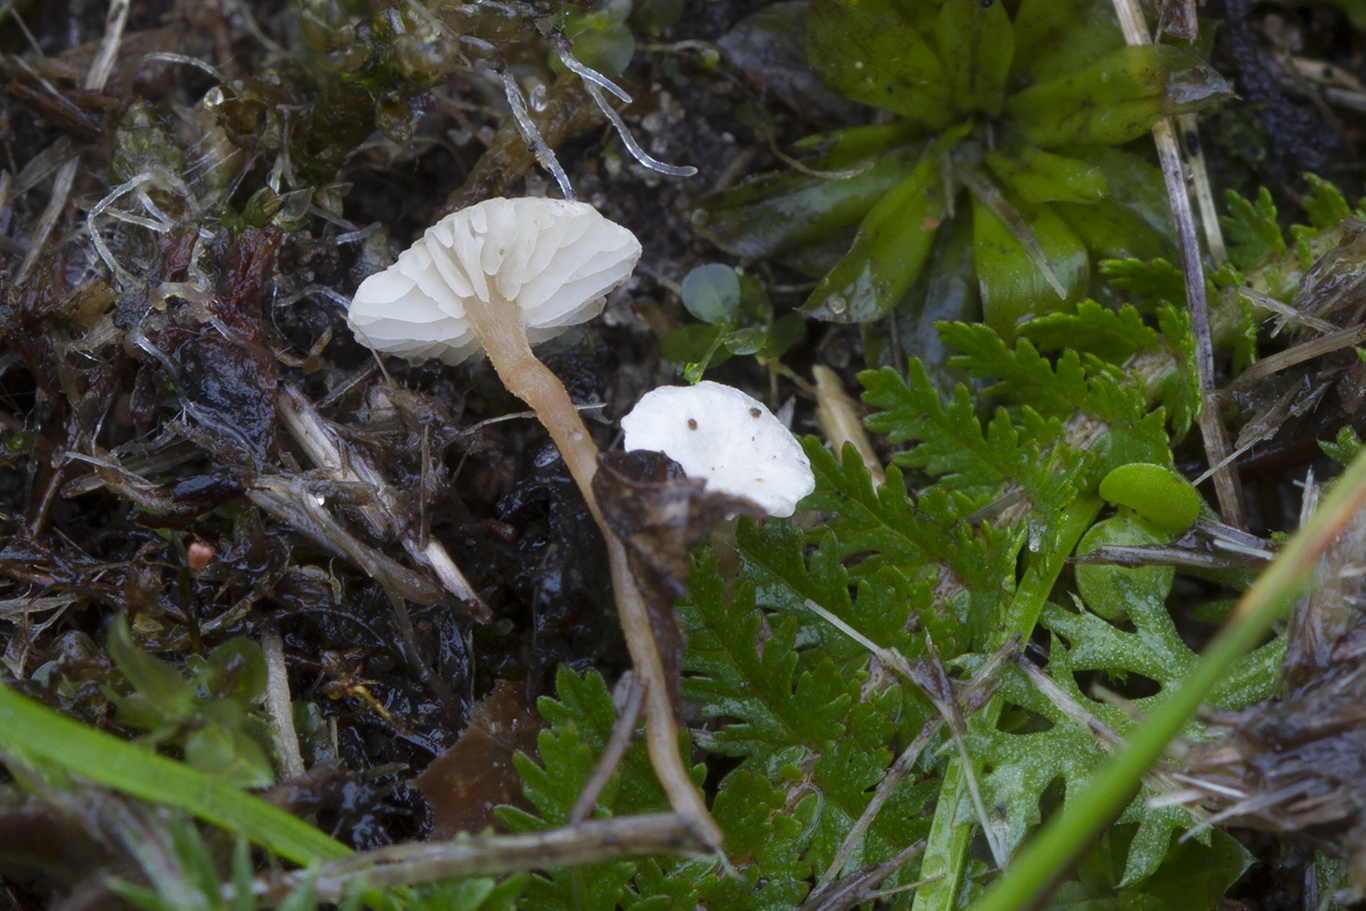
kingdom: Fungi
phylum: Basidiomycota
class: Agaricomycetes
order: Agaricales
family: Tricholomataceae
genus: Collybia
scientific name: Collybia cookei
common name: gulknoldet lighat
